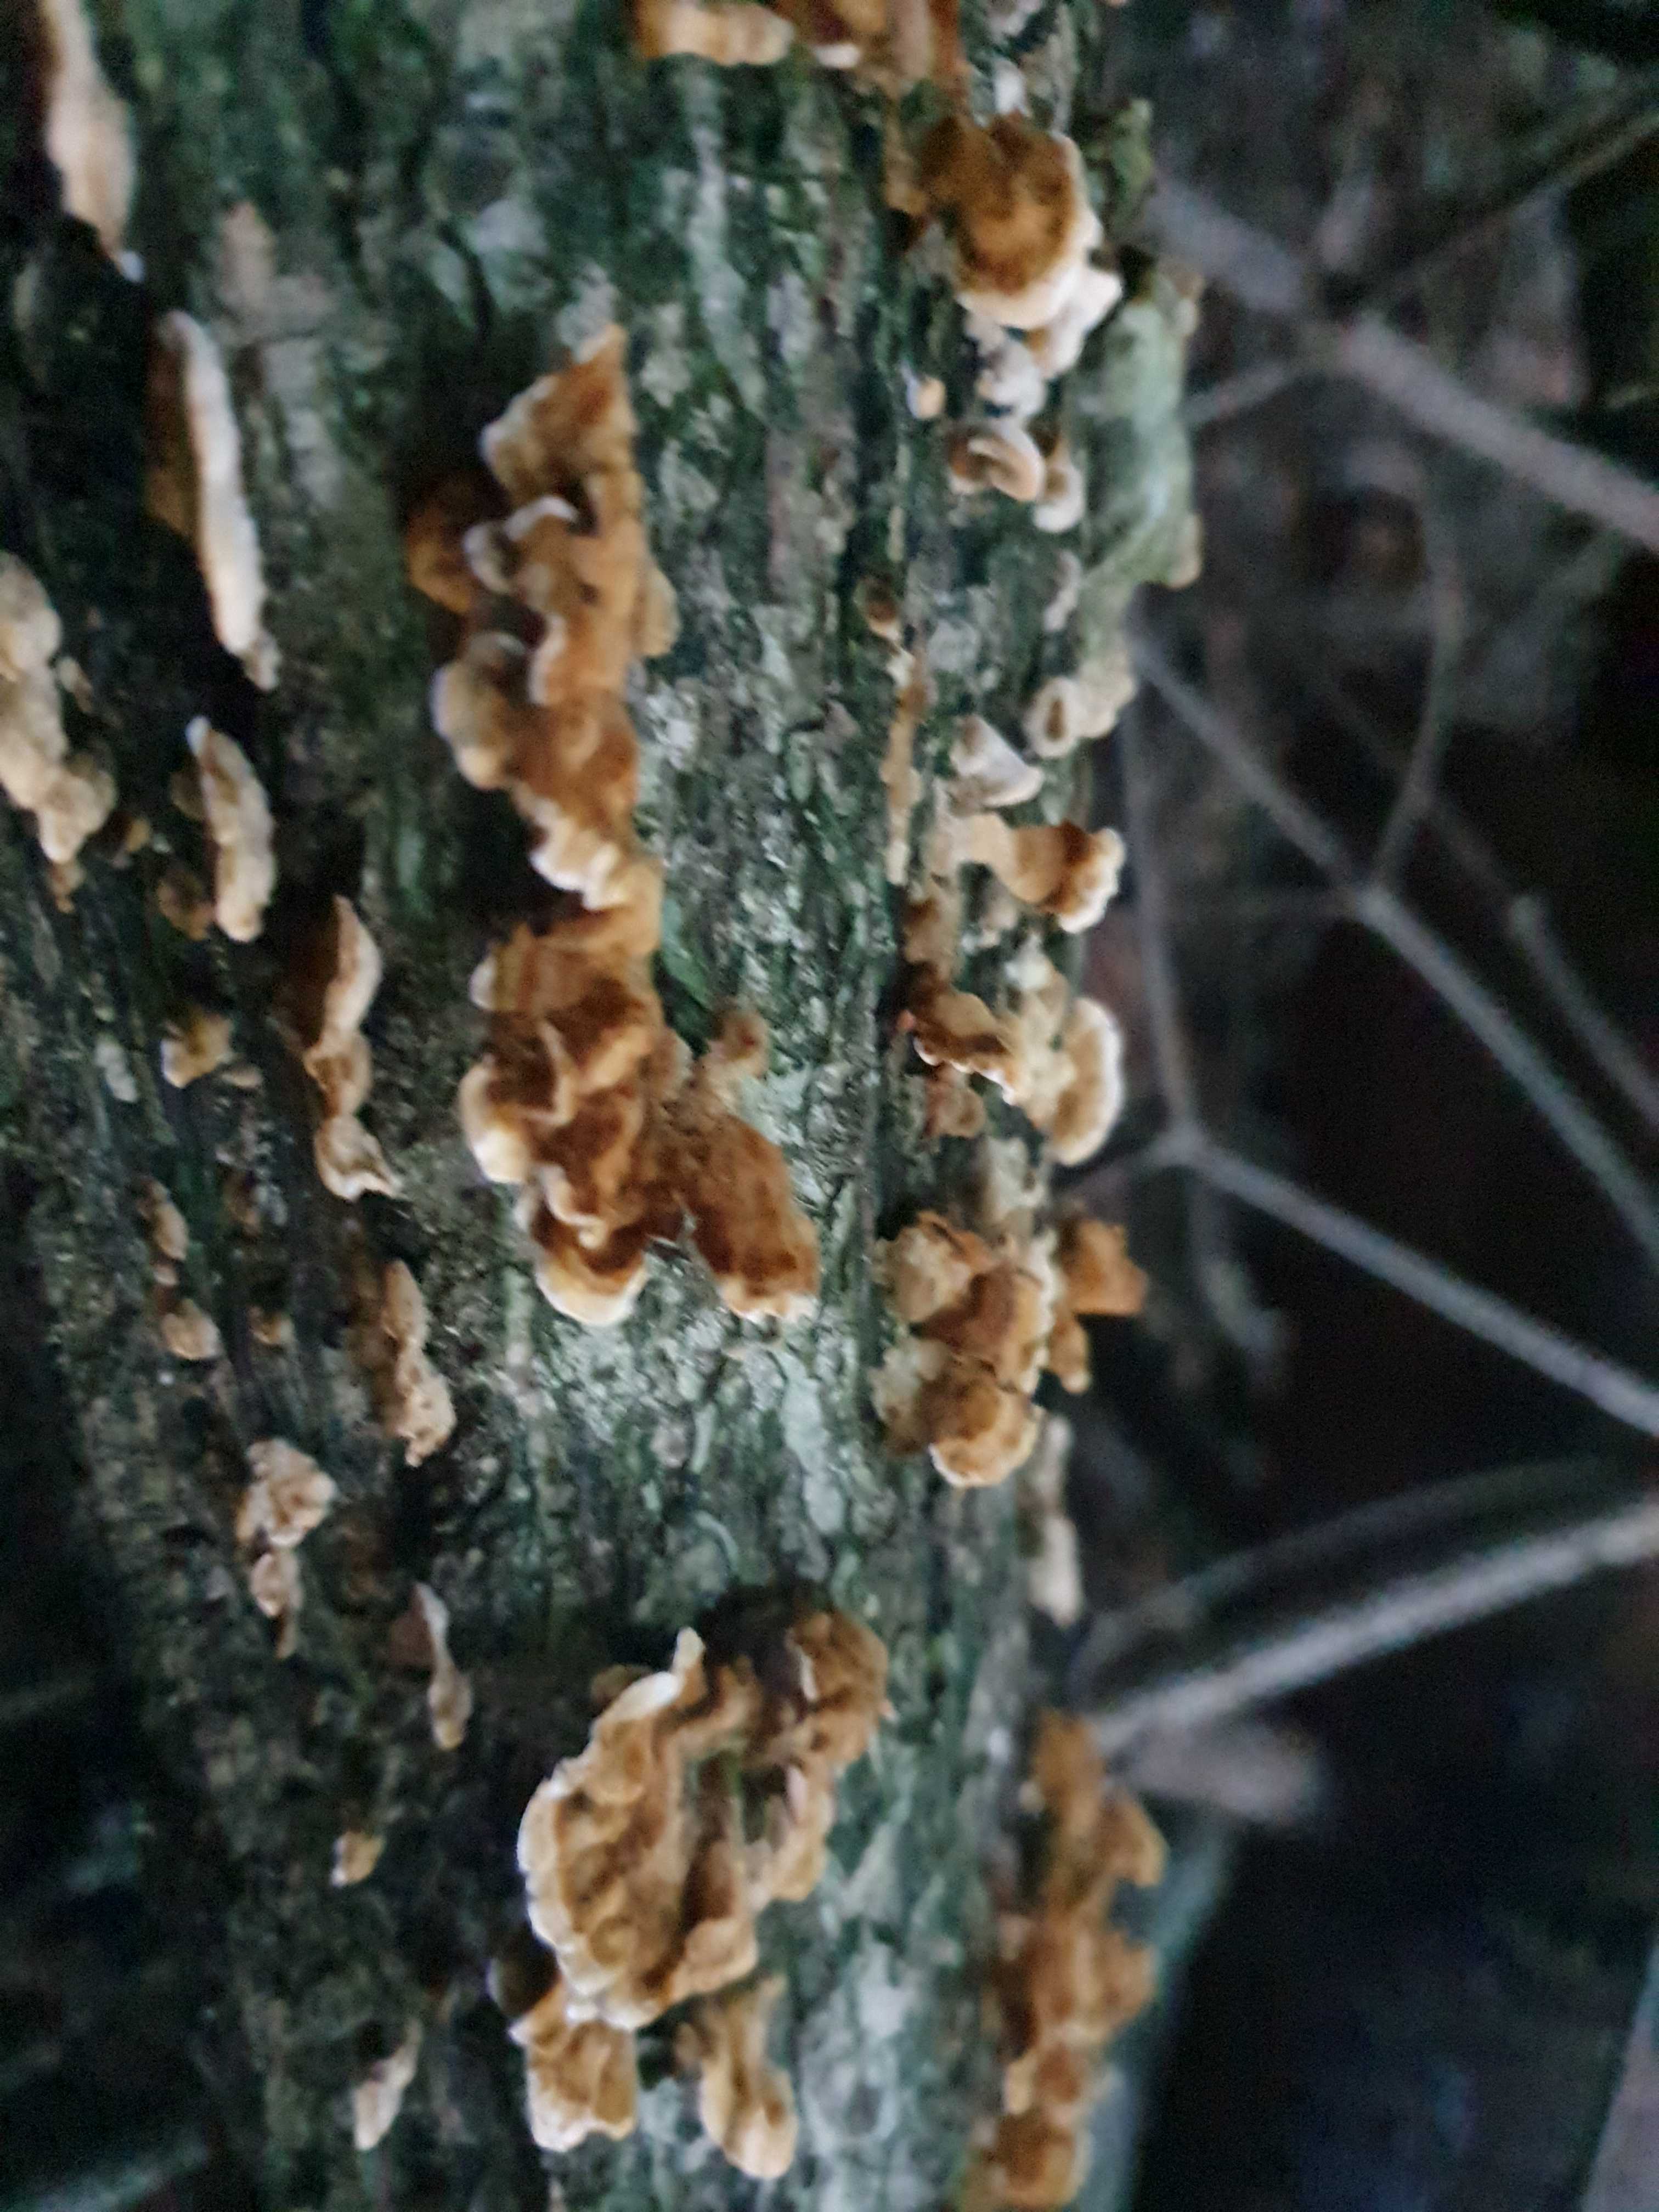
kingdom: Fungi
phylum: Basidiomycota
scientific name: Basidiomycota
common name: basidiesvampe
